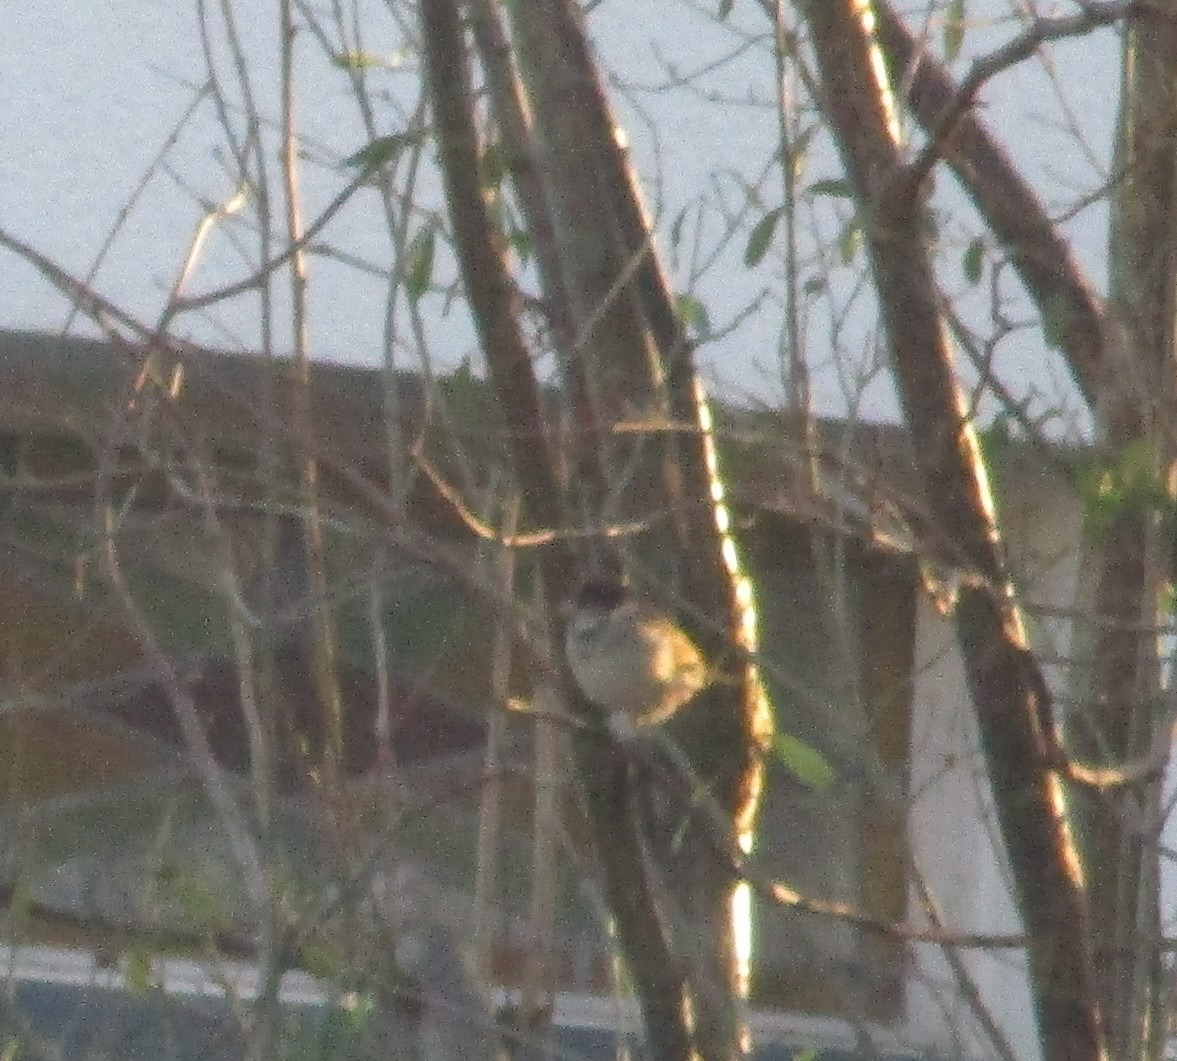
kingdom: Animalia
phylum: Chordata
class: Aves
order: Passeriformes
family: Passeridae
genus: Passer
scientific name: Passer domesticus
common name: Gråspurv
